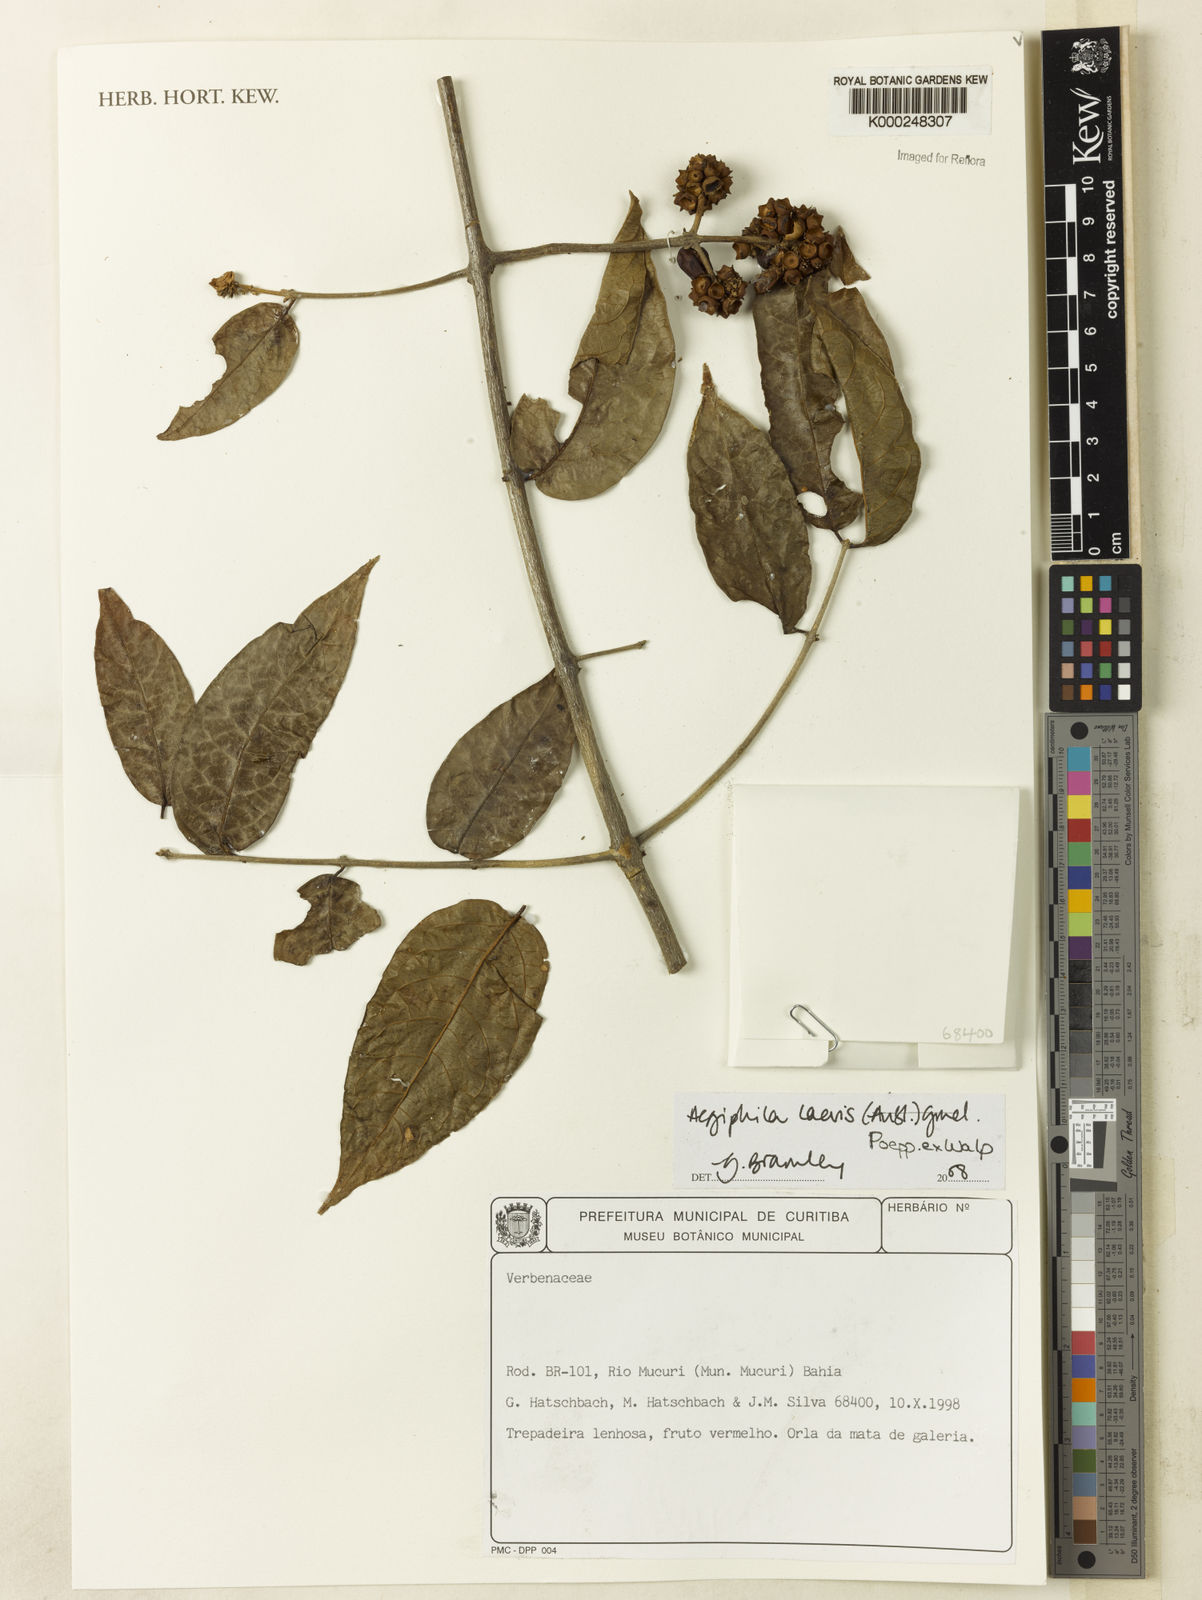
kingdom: Plantae
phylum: Tracheophyta
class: Magnoliopsida
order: Lamiales
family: Lamiaceae
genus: Aegiphila
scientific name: Aegiphila elata
